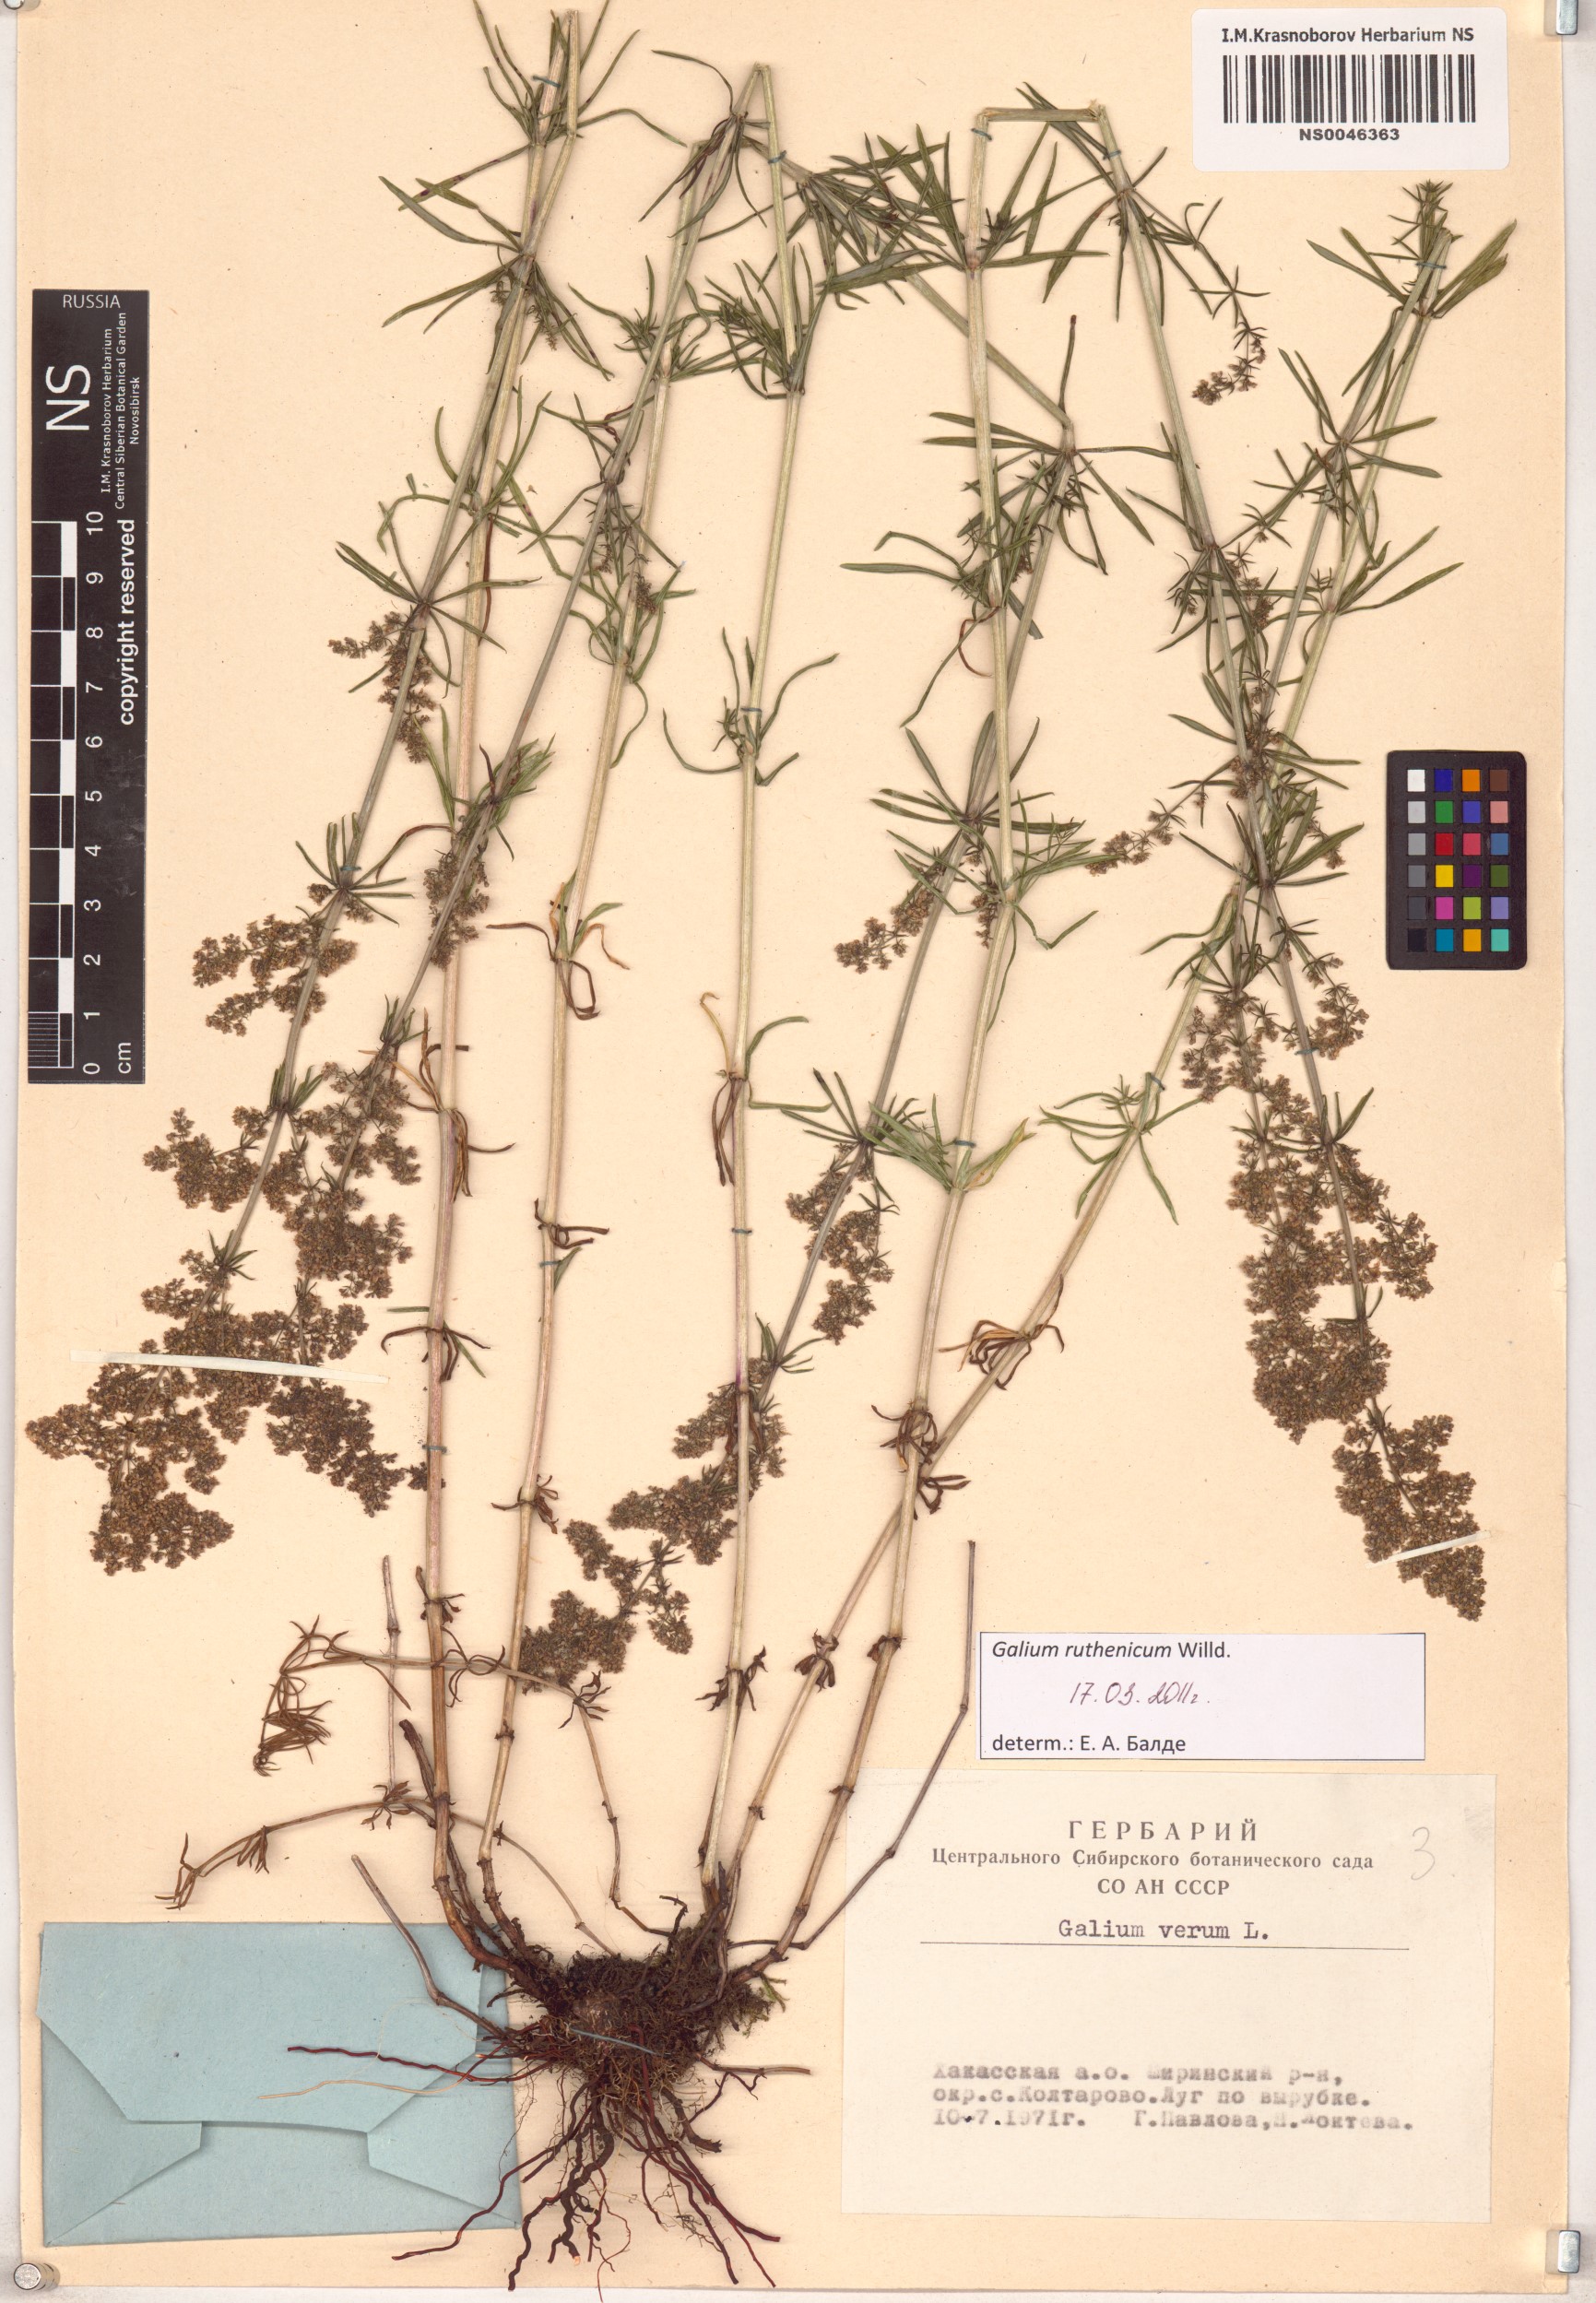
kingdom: Plantae
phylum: Tracheophyta
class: Magnoliopsida
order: Gentianales
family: Rubiaceae
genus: Galium
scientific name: Galium verum
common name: Lady's bedstraw
